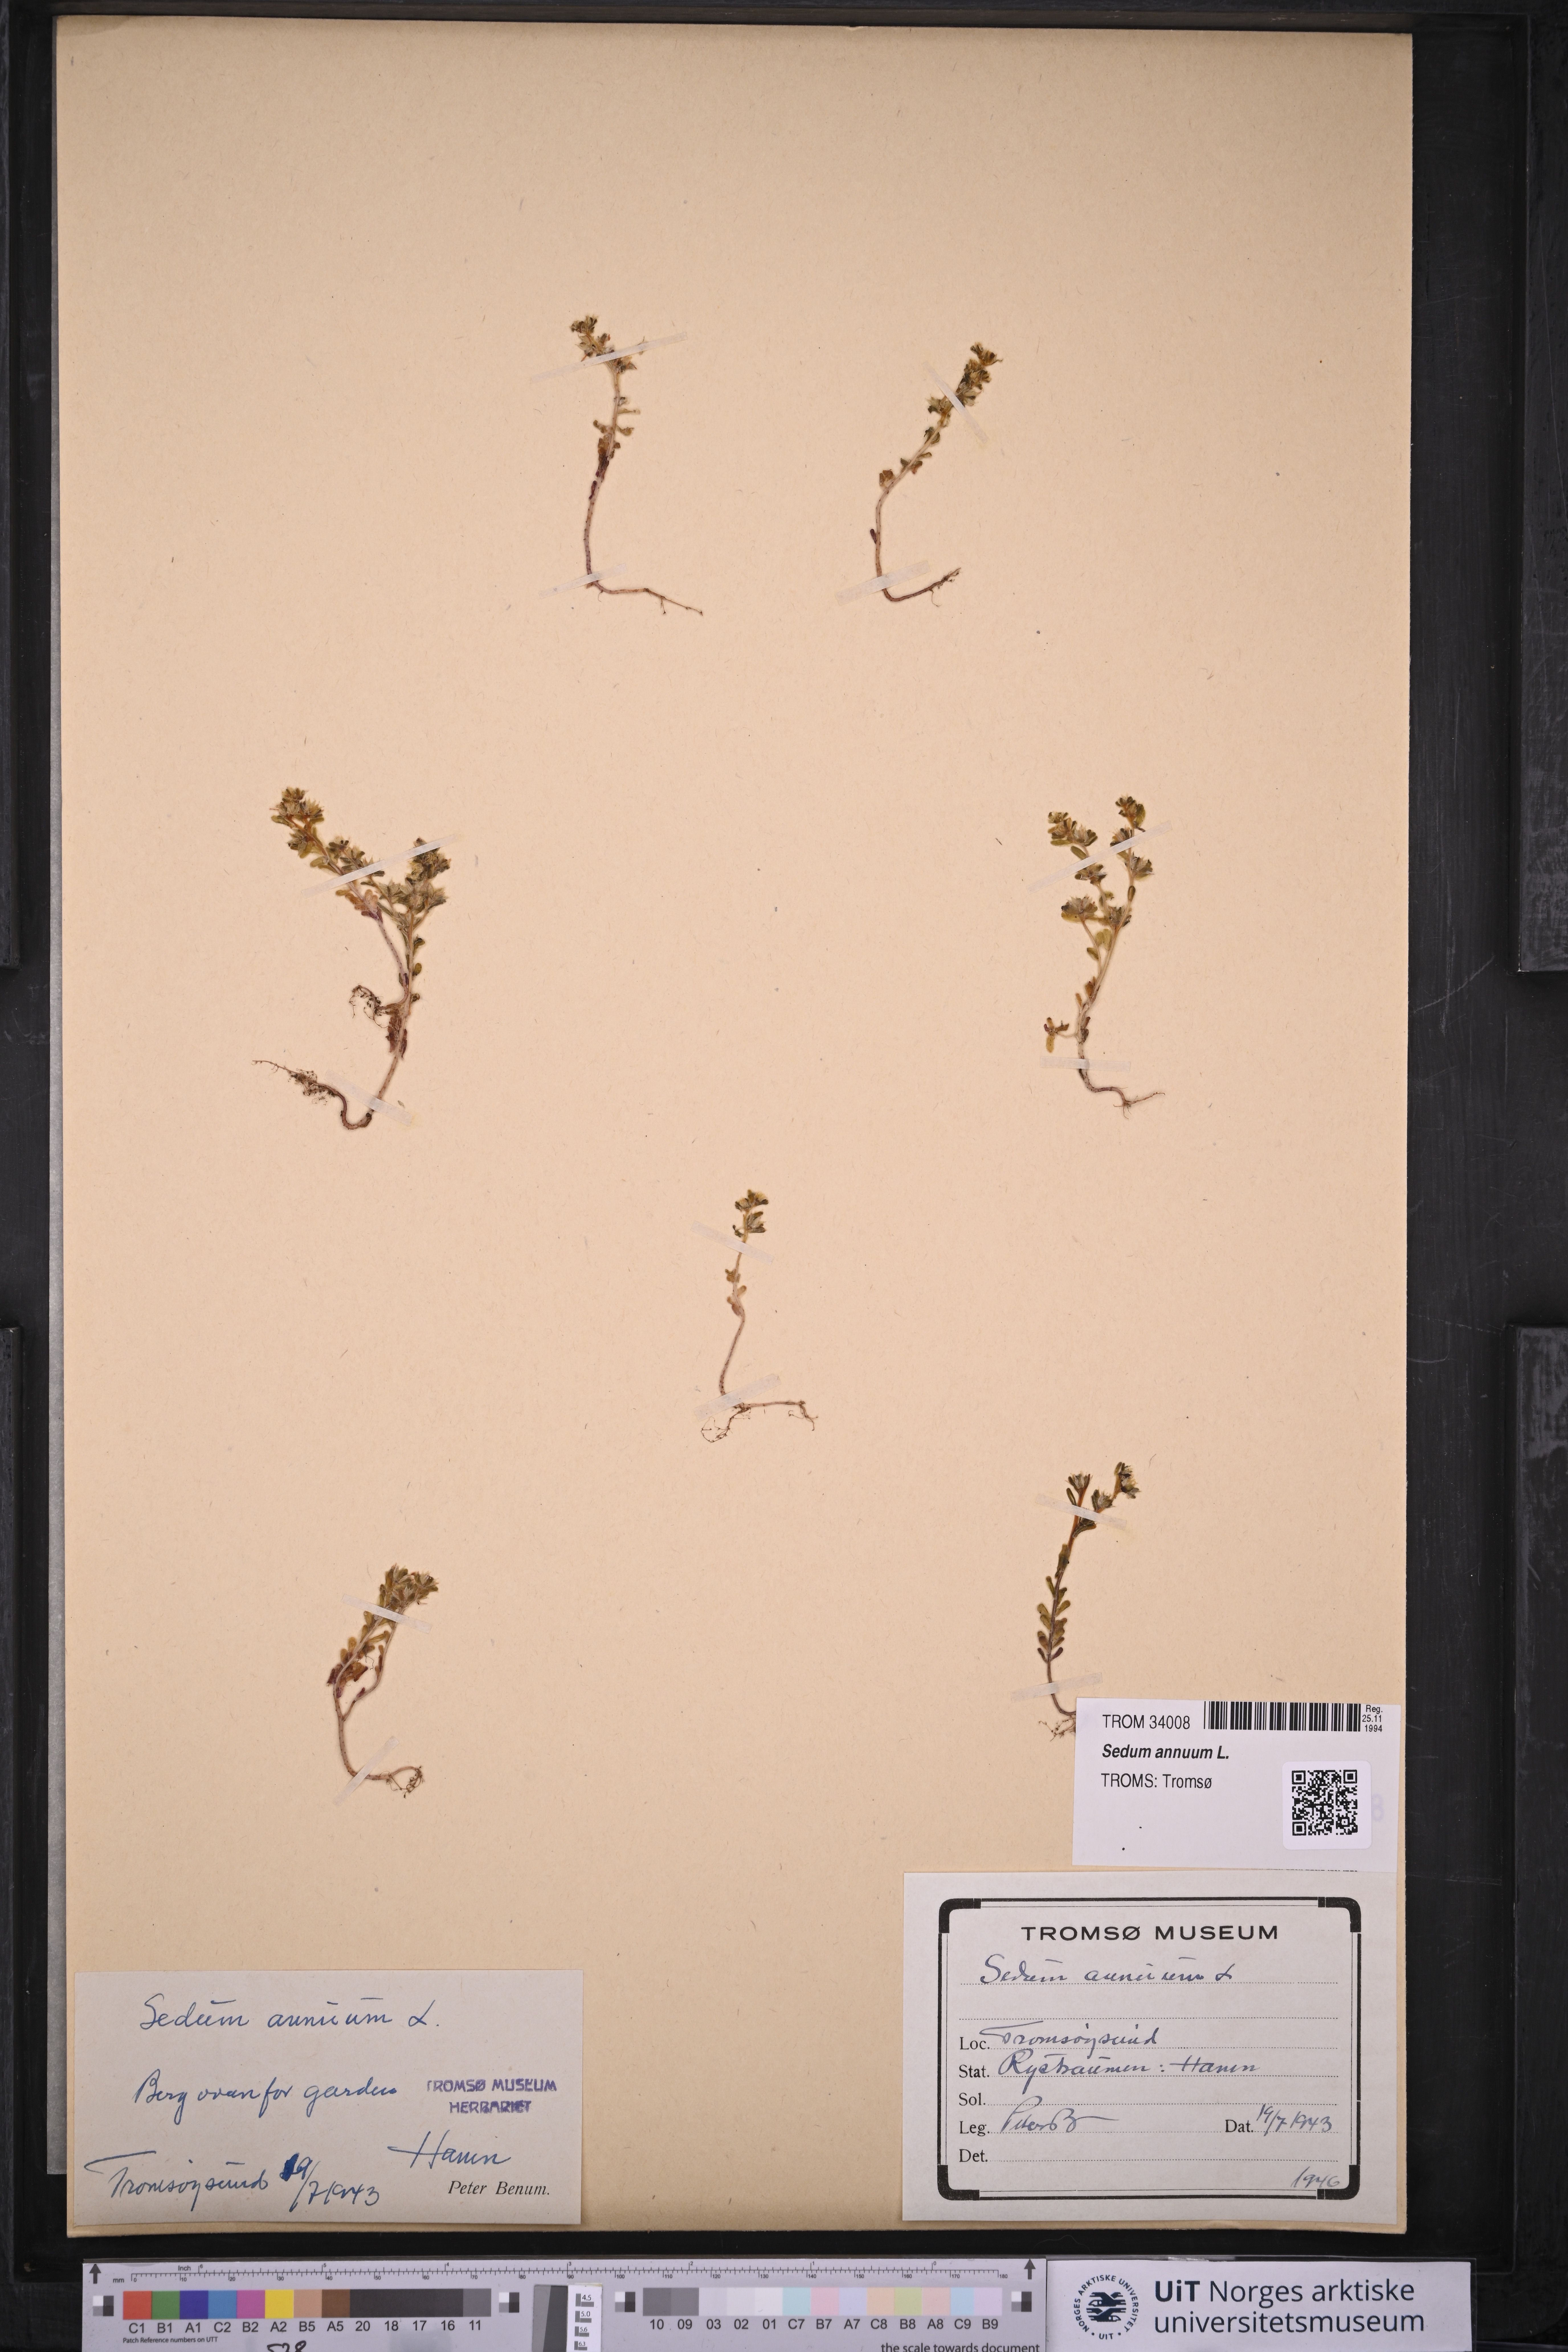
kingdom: Plantae
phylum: Tracheophyta
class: Magnoliopsida
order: Saxifragales
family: Crassulaceae
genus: Sedum
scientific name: Sedum annuum
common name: Annual stonecrop
